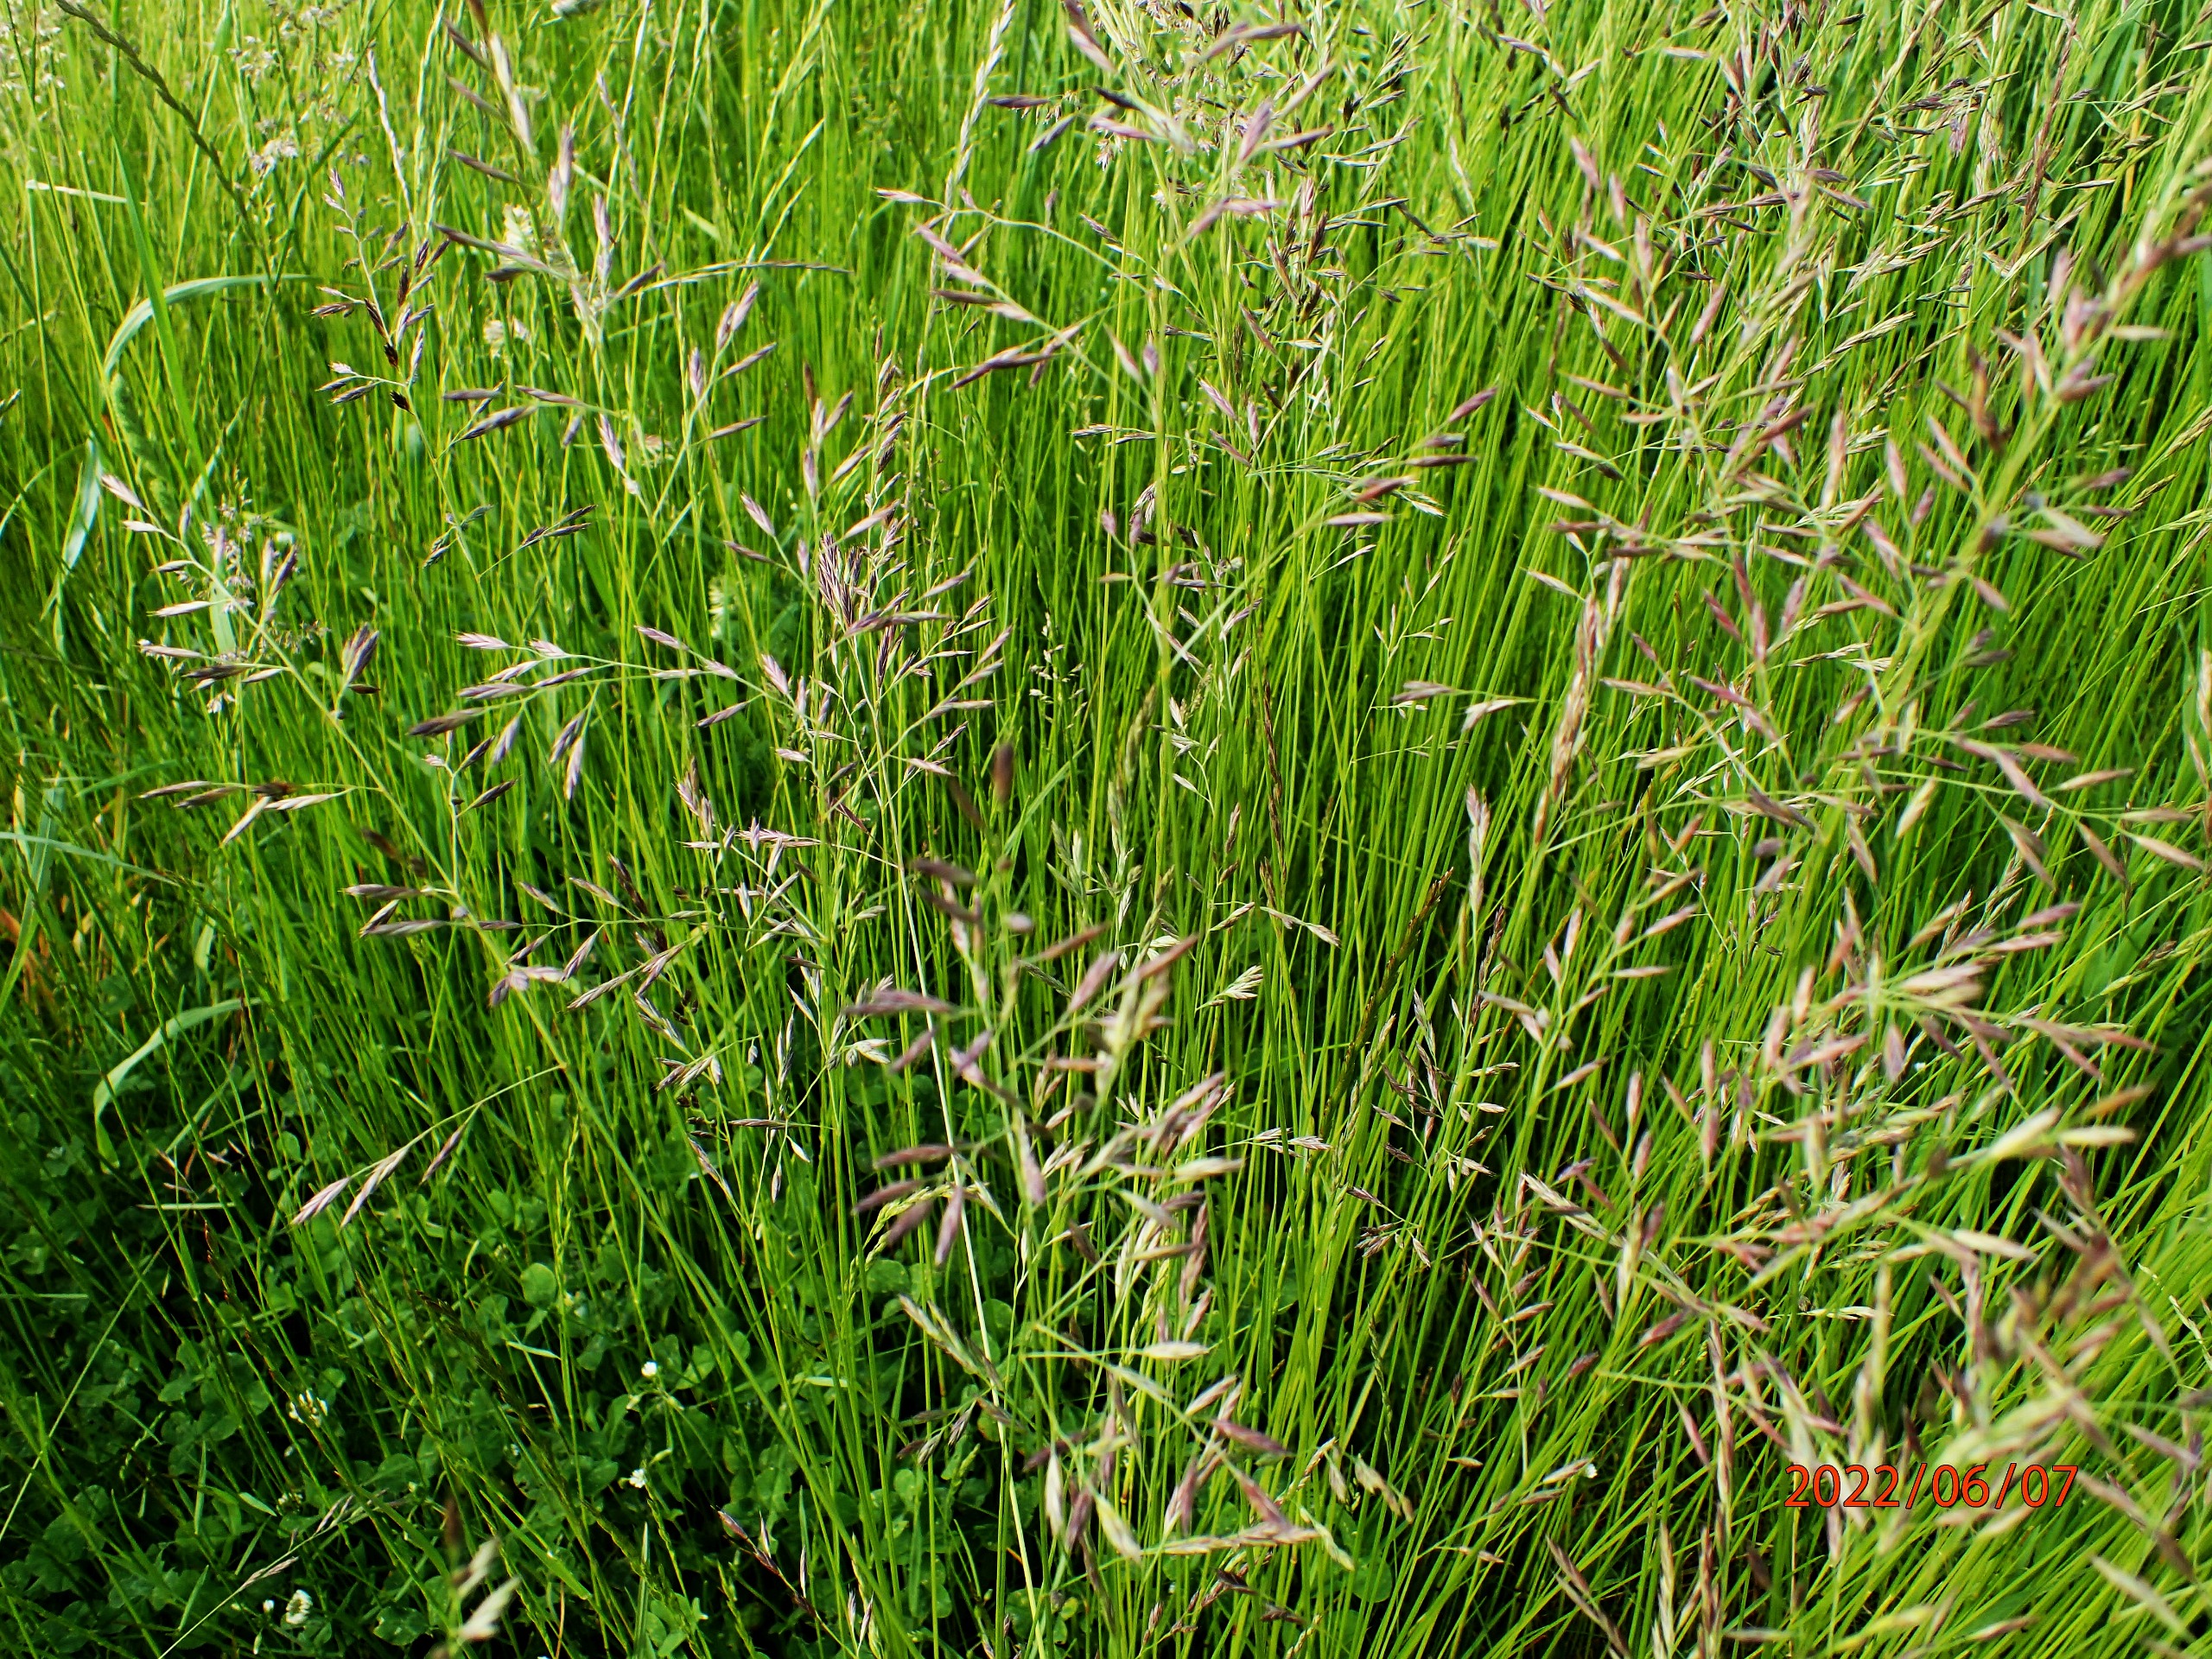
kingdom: Plantae
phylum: Tracheophyta
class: Liliopsida
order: Poales
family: Poaceae
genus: Festuca
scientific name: Festuca rubra
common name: Rød svingel
